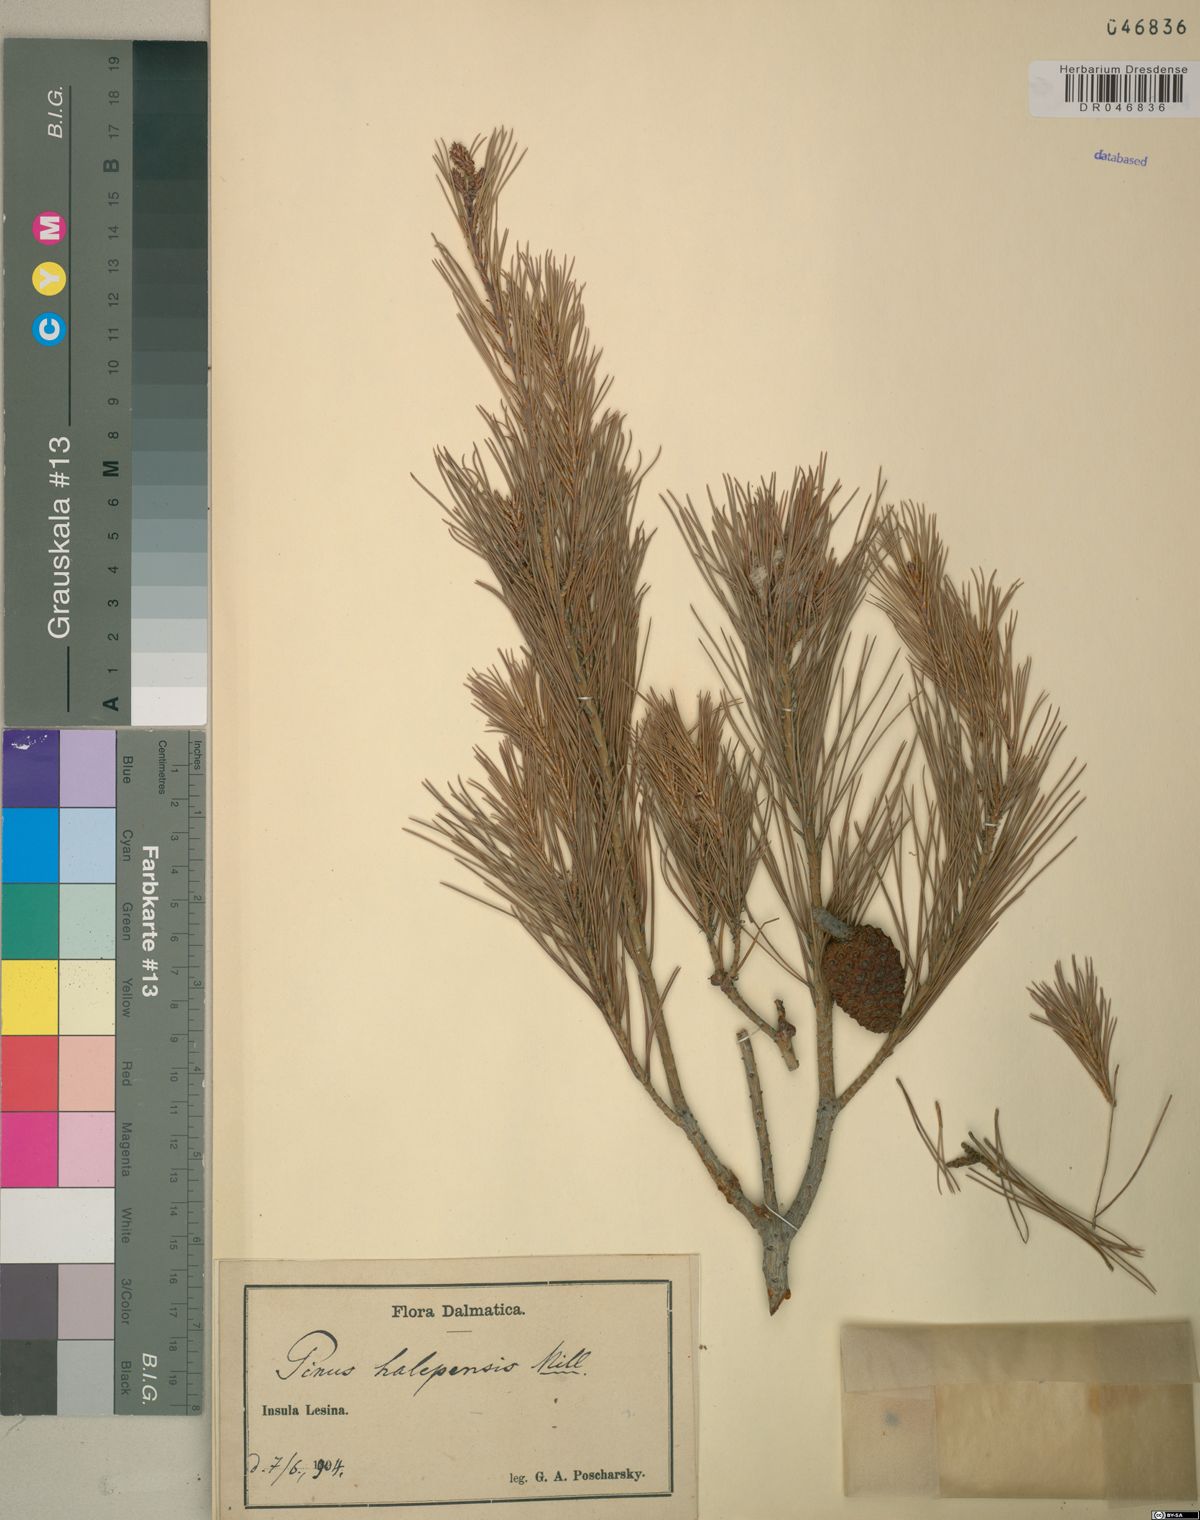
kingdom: Plantae
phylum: Tracheophyta
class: Pinopsida
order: Pinales
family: Pinaceae
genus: Pinus
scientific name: Pinus halepensis
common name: Aleppo pine
